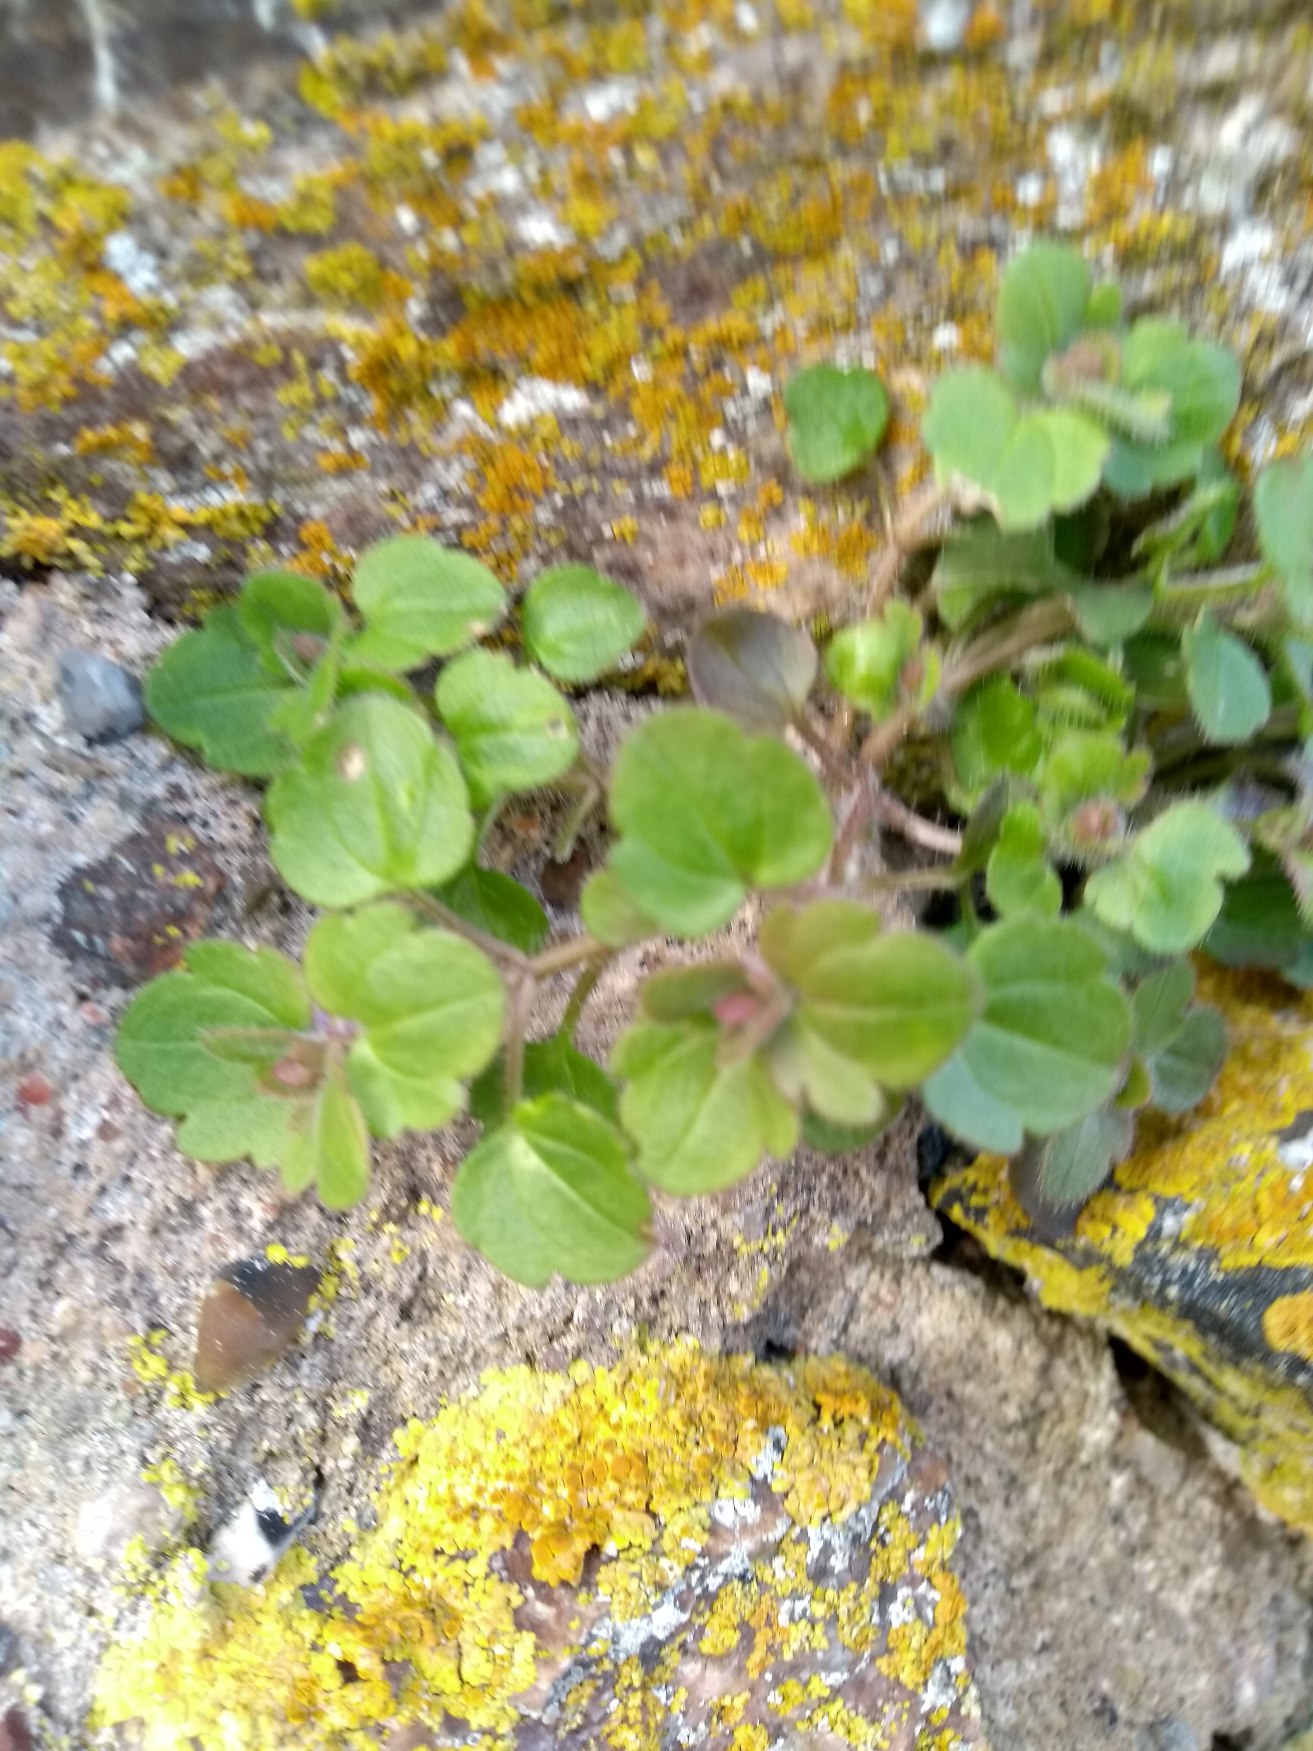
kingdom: Plantae
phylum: Tracheophyta
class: Magnoliopsida
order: Lamiales
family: Plantaginaceae
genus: Veronica
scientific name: Veronica hederifolia
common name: Vedbend-ærenpris
